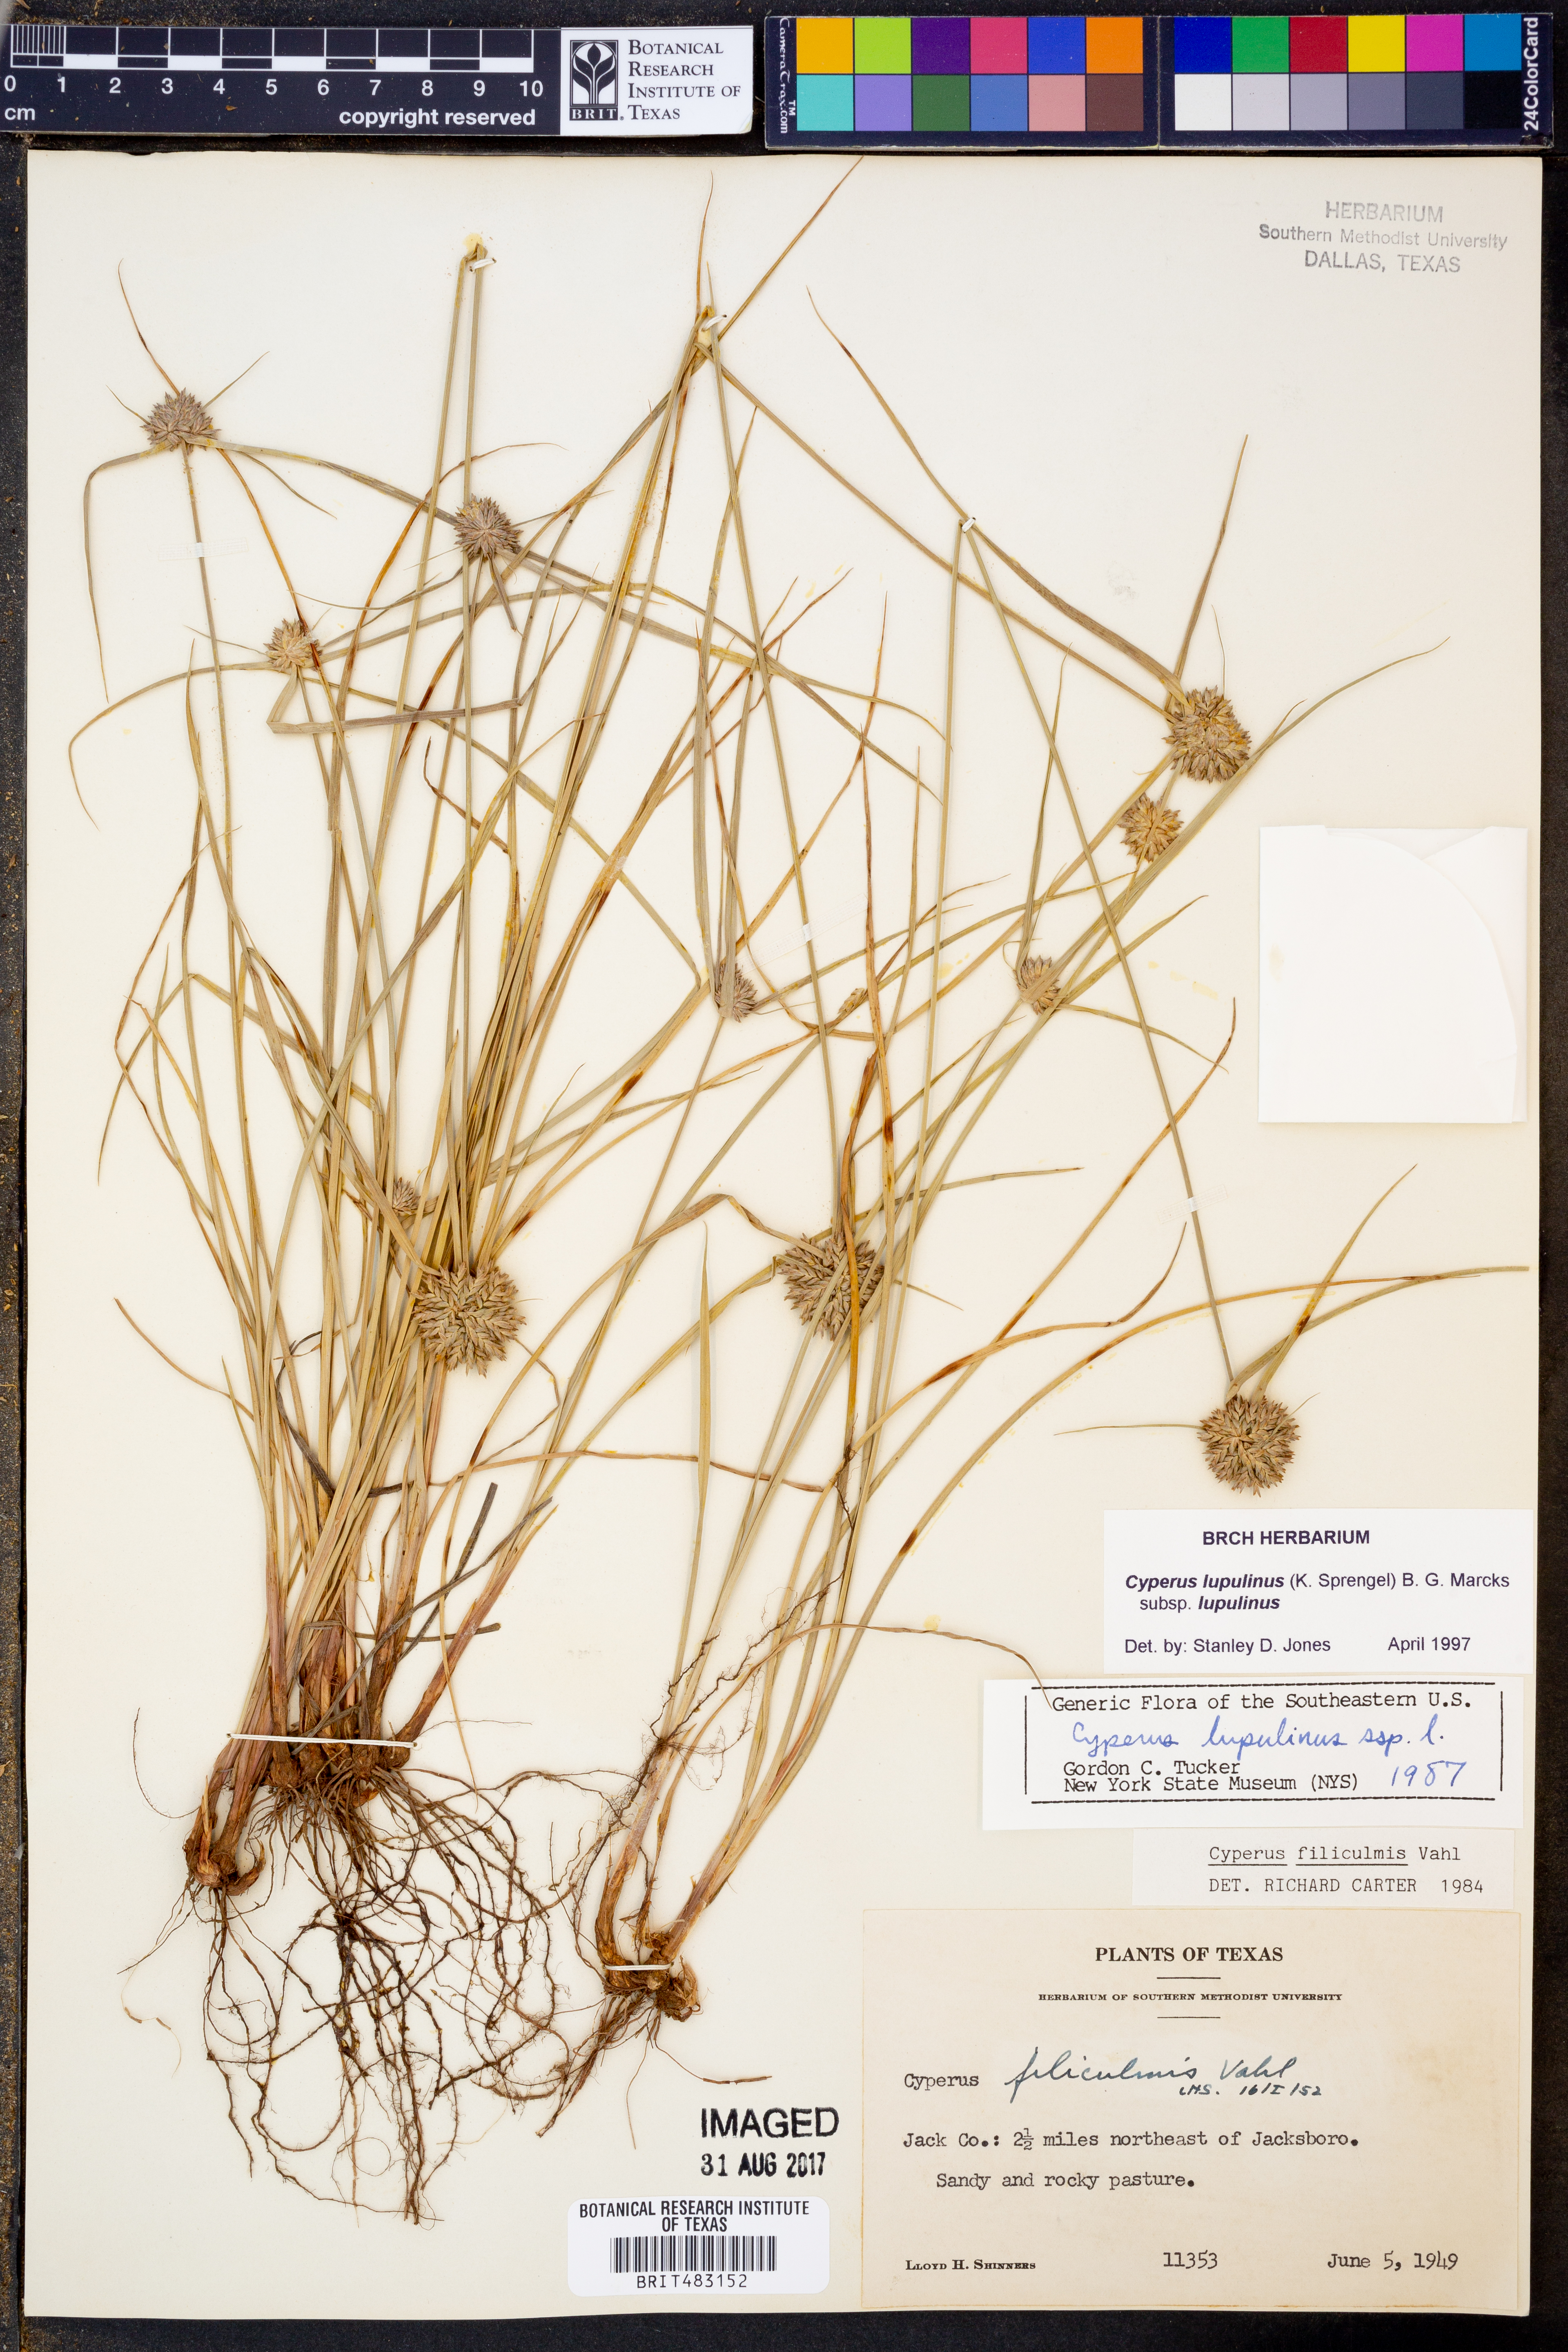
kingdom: Plantae
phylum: Tracheophyta
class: Liliopsida
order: Poales
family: Cyperaceae
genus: Cyperus
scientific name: Cyperus lupulinus
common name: Great plains flatsedge
